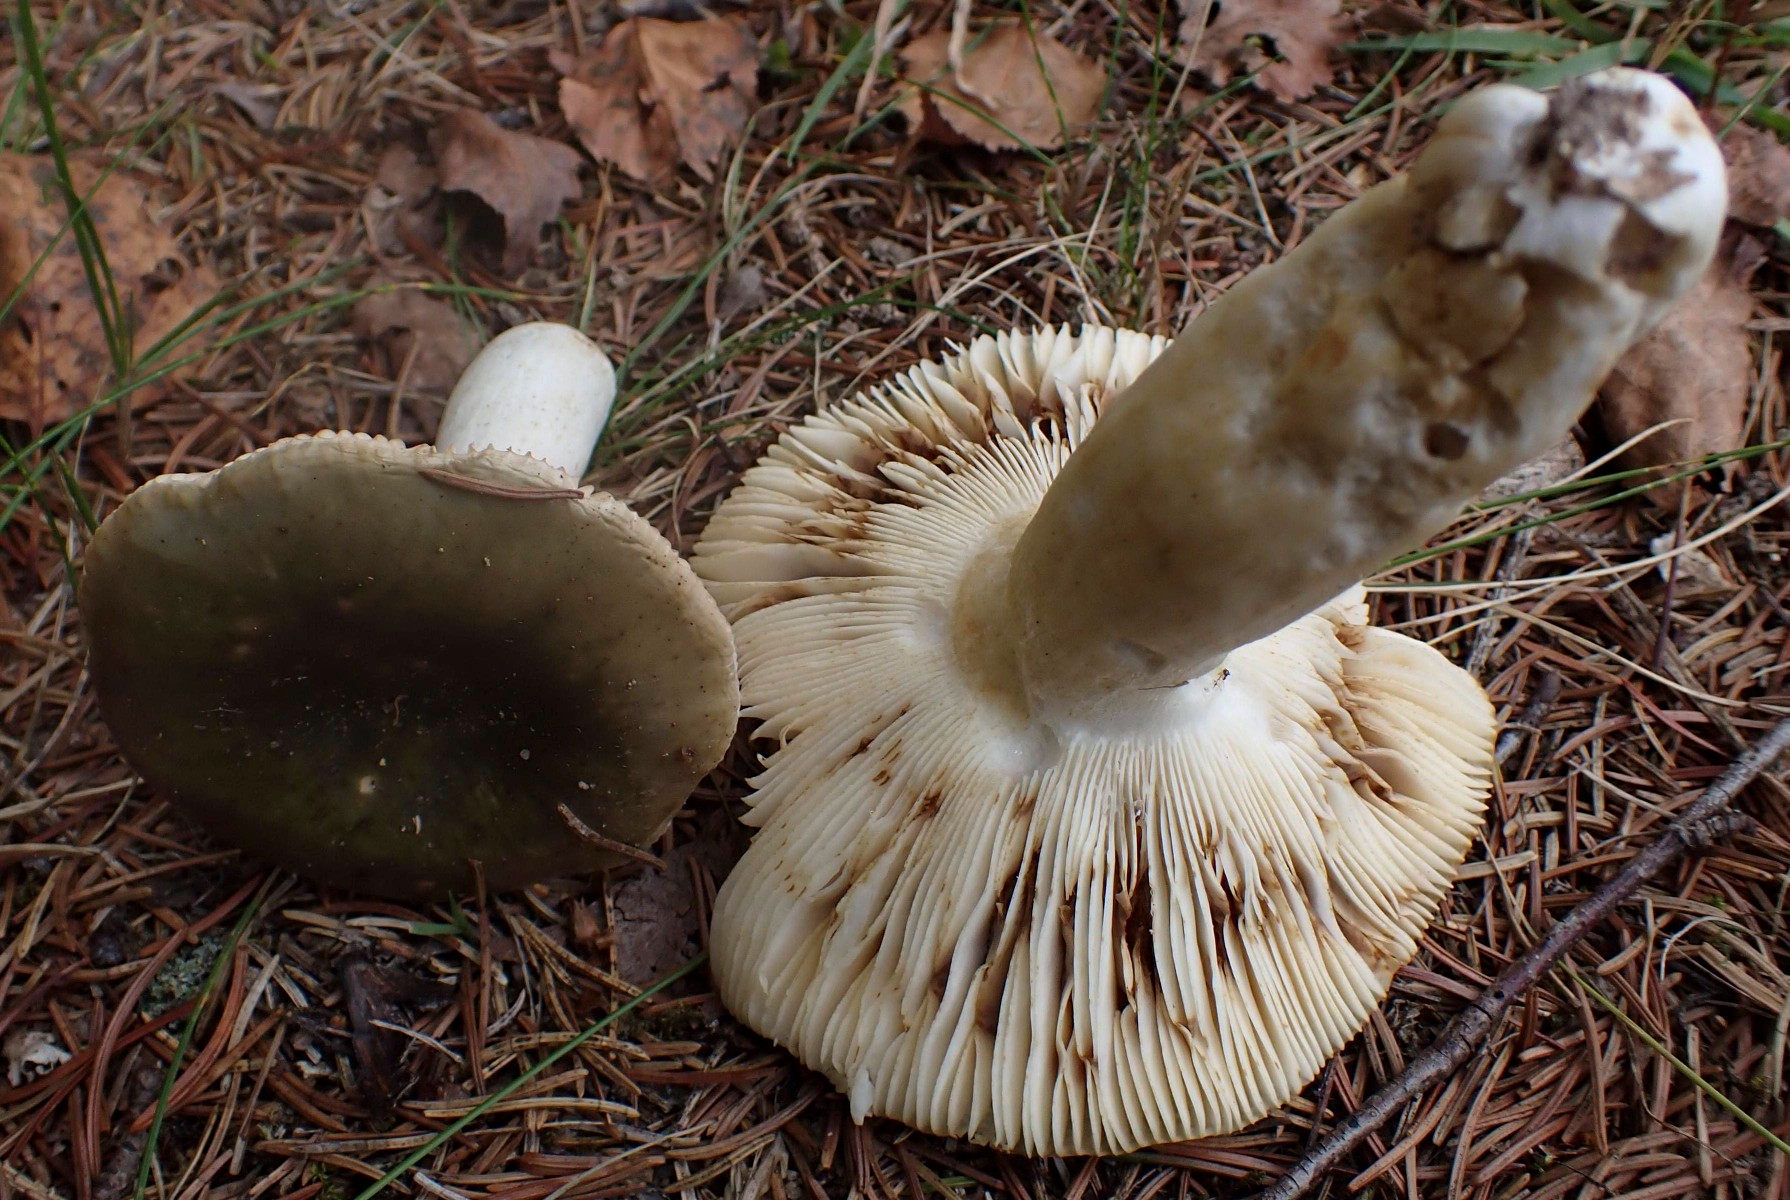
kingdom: Fungi
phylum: Basidiomycota
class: Agaricomycetes
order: Russulales
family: Russulaceae
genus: Russula
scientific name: Russula heterophylla
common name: gaffelbladet skørhat
